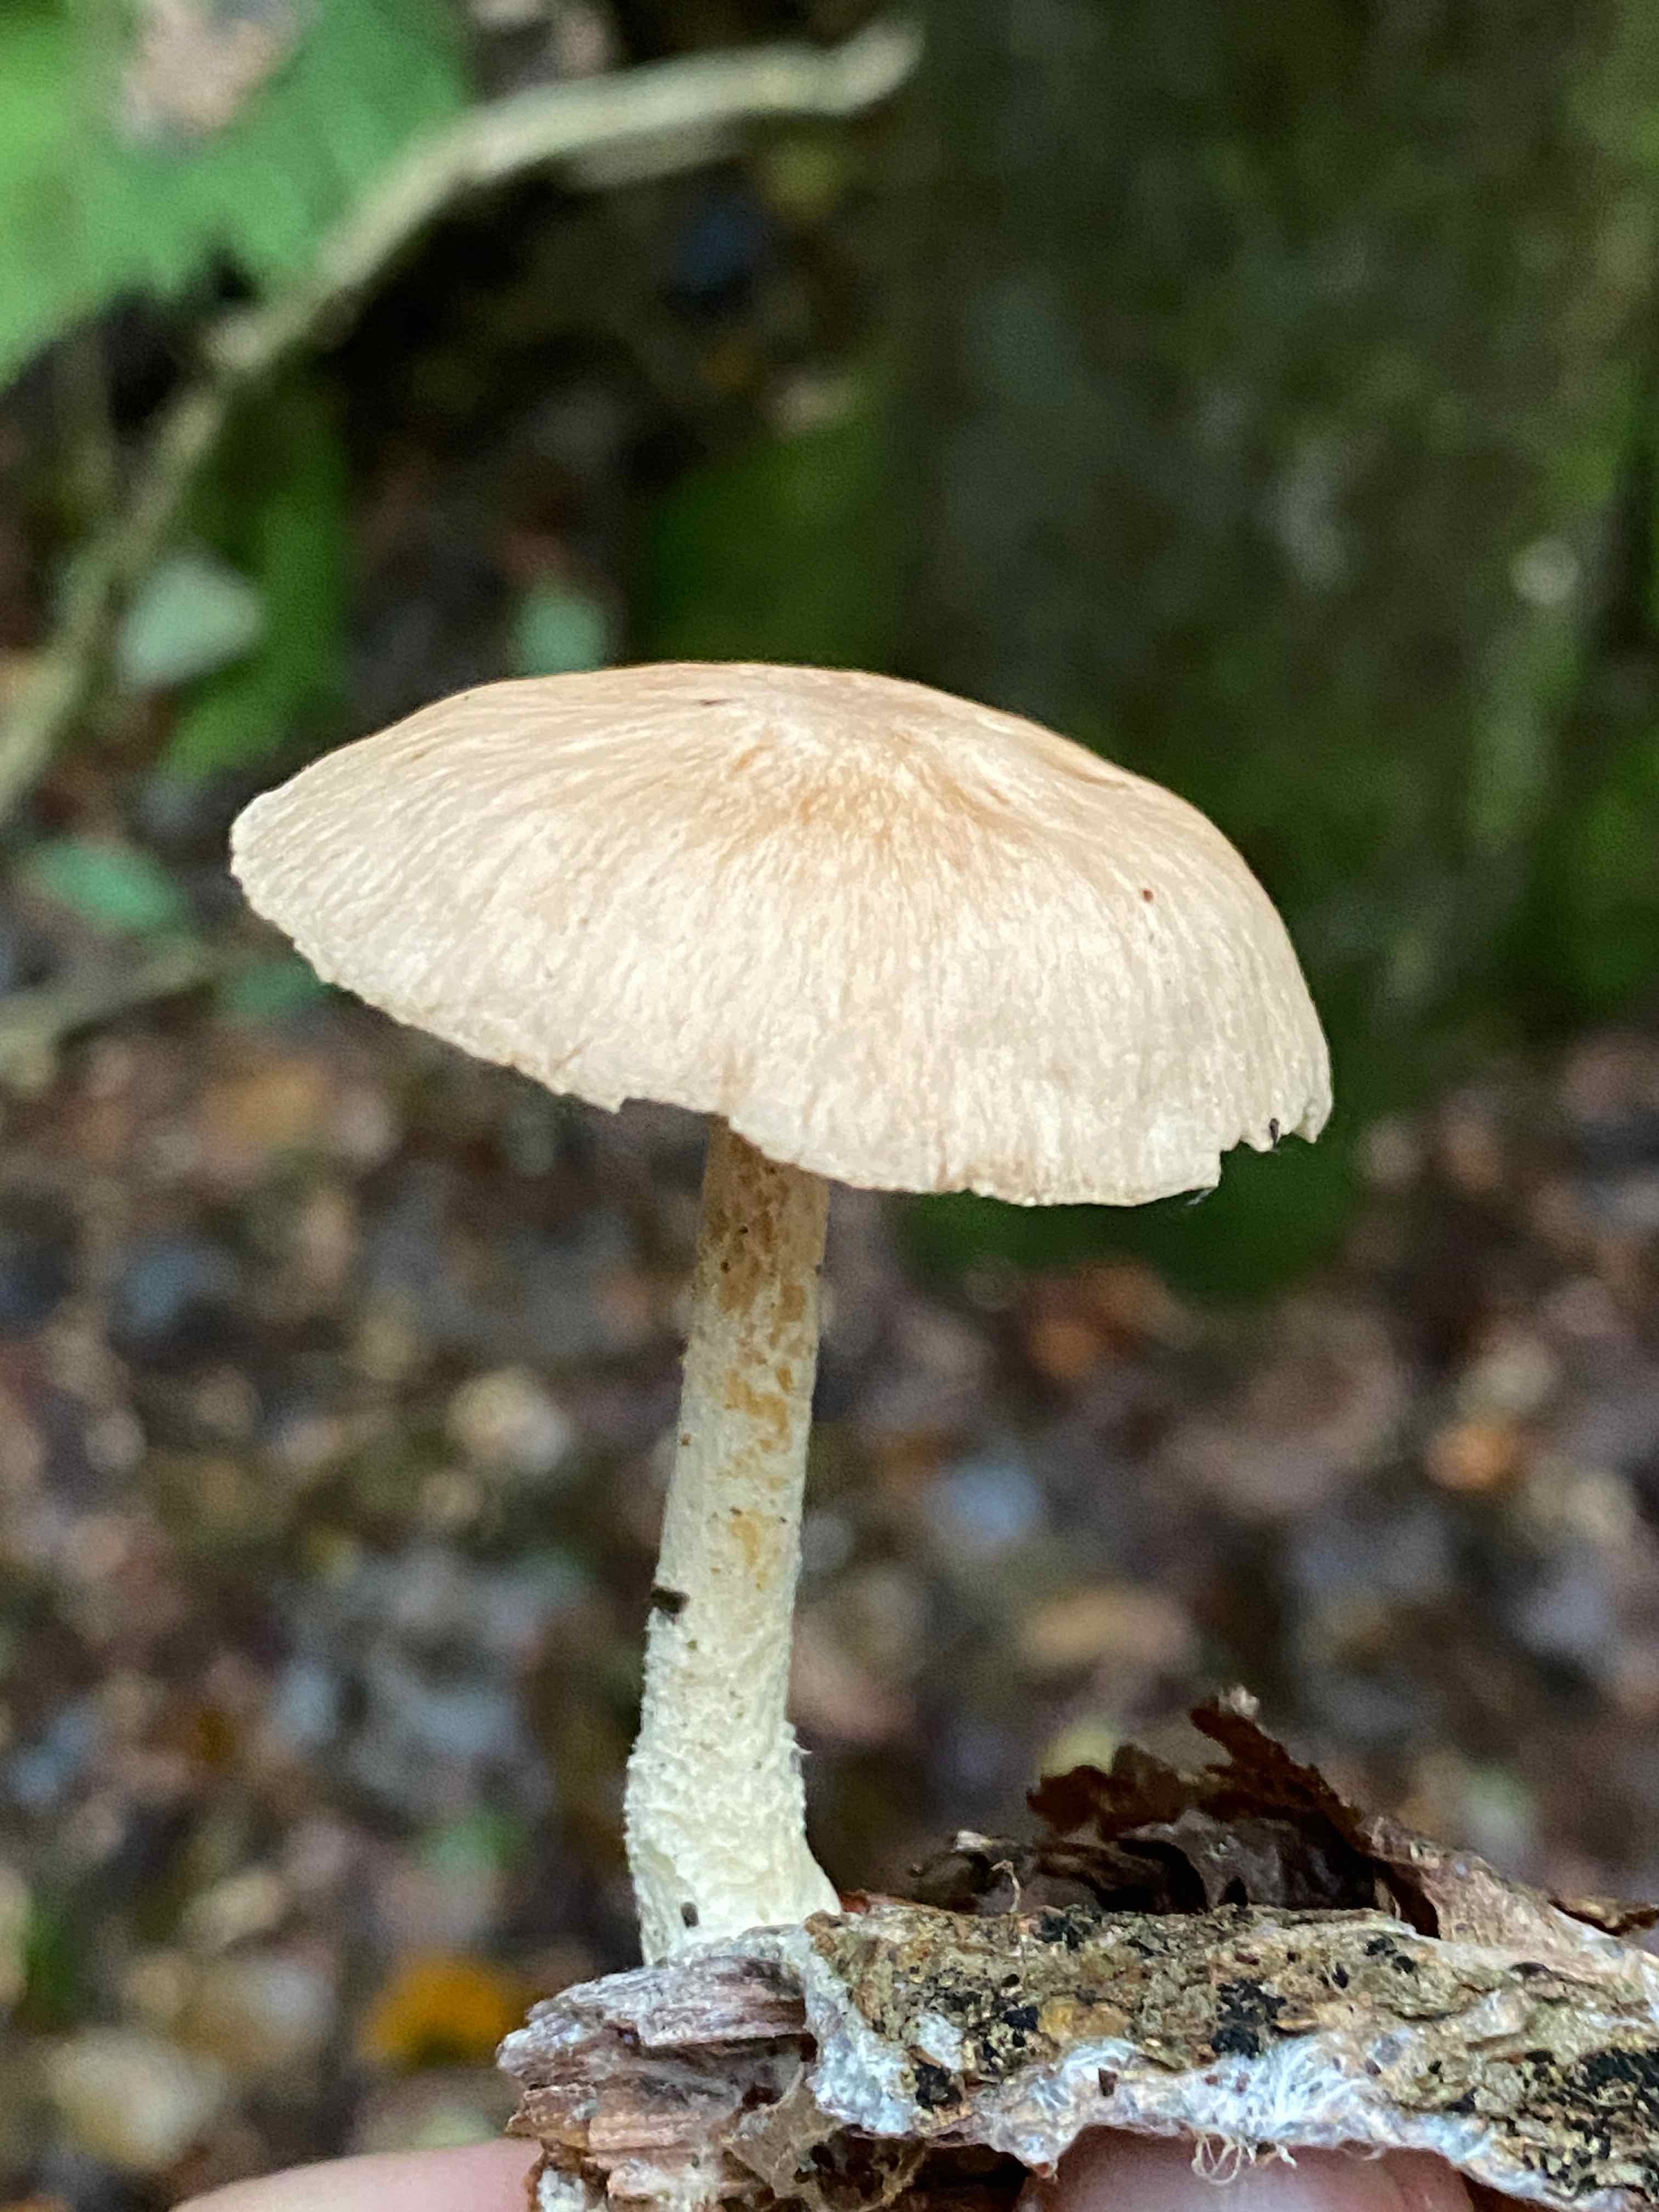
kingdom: Fungi
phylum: Basidiomycota
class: Agaricomycetes
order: Agaricales
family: Omphalotaceae
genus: Collybiopsis
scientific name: Collybiopsis peronata
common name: bestøvlet fladhat
